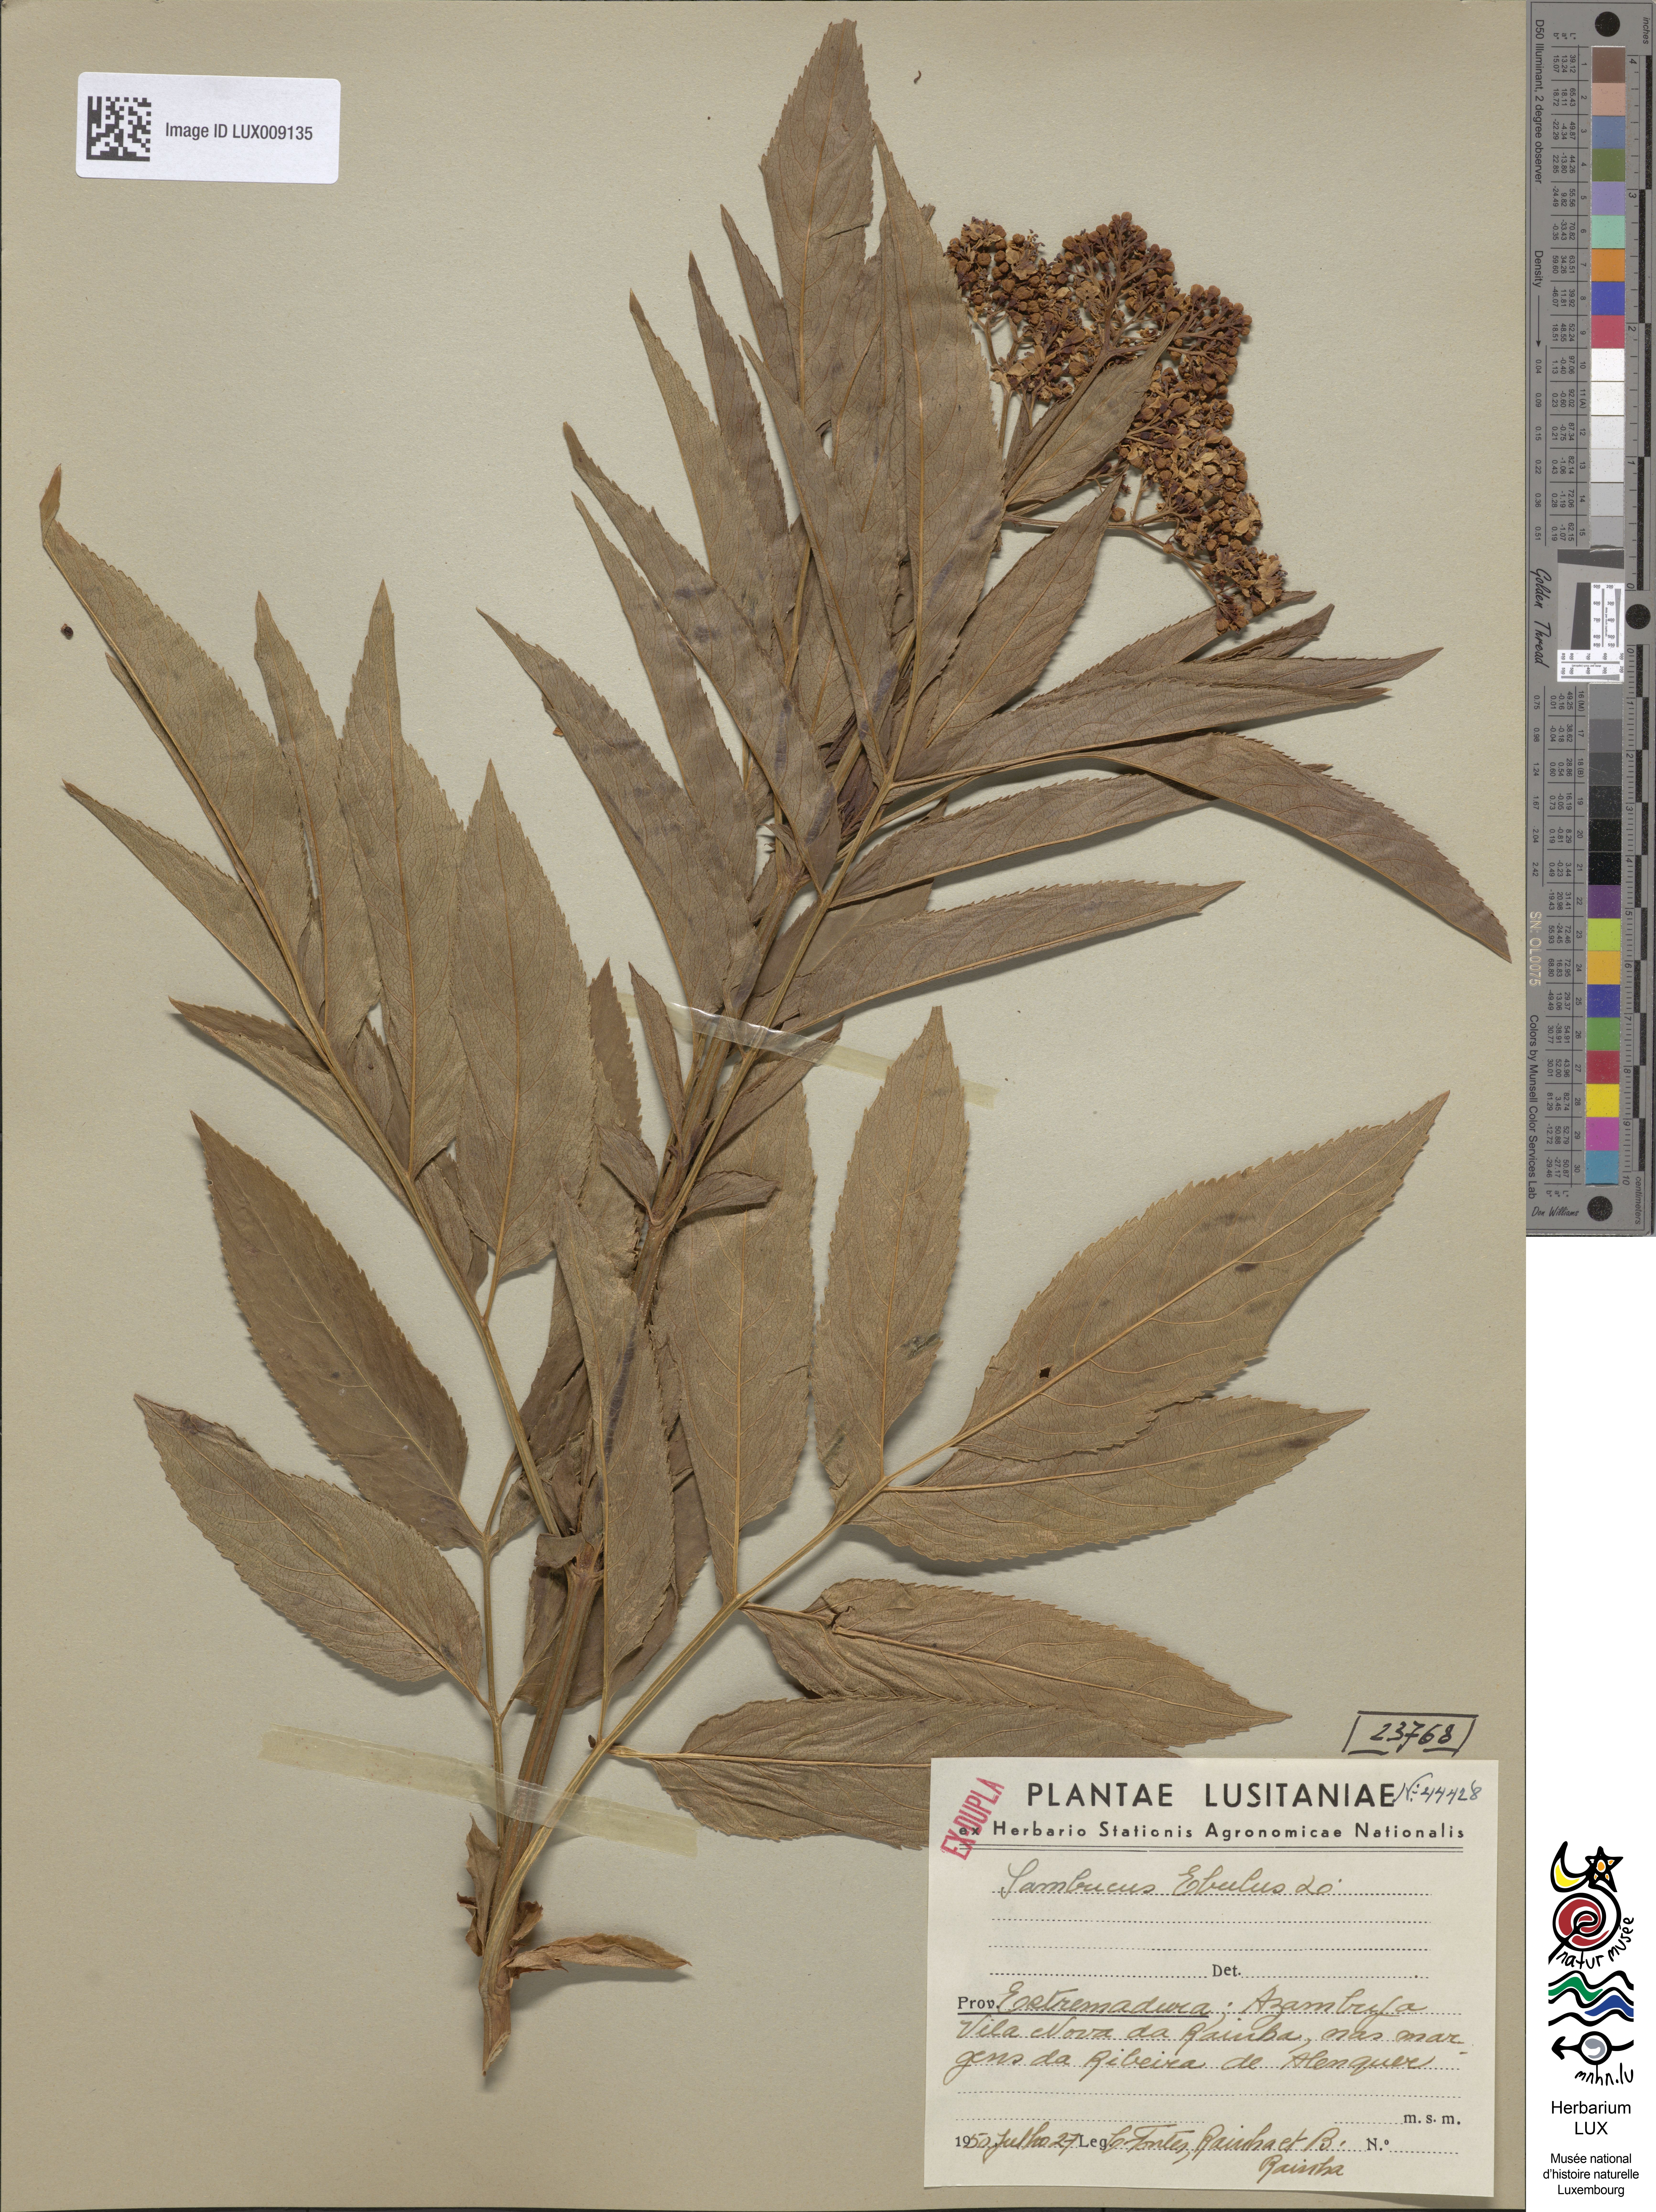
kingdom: Plantae
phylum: Tracheophyta
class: Magnoliopsida
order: Dipsacales
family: Viburnaceae
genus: Sambucus
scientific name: Sambucus ebulus
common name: Dwarf elder
